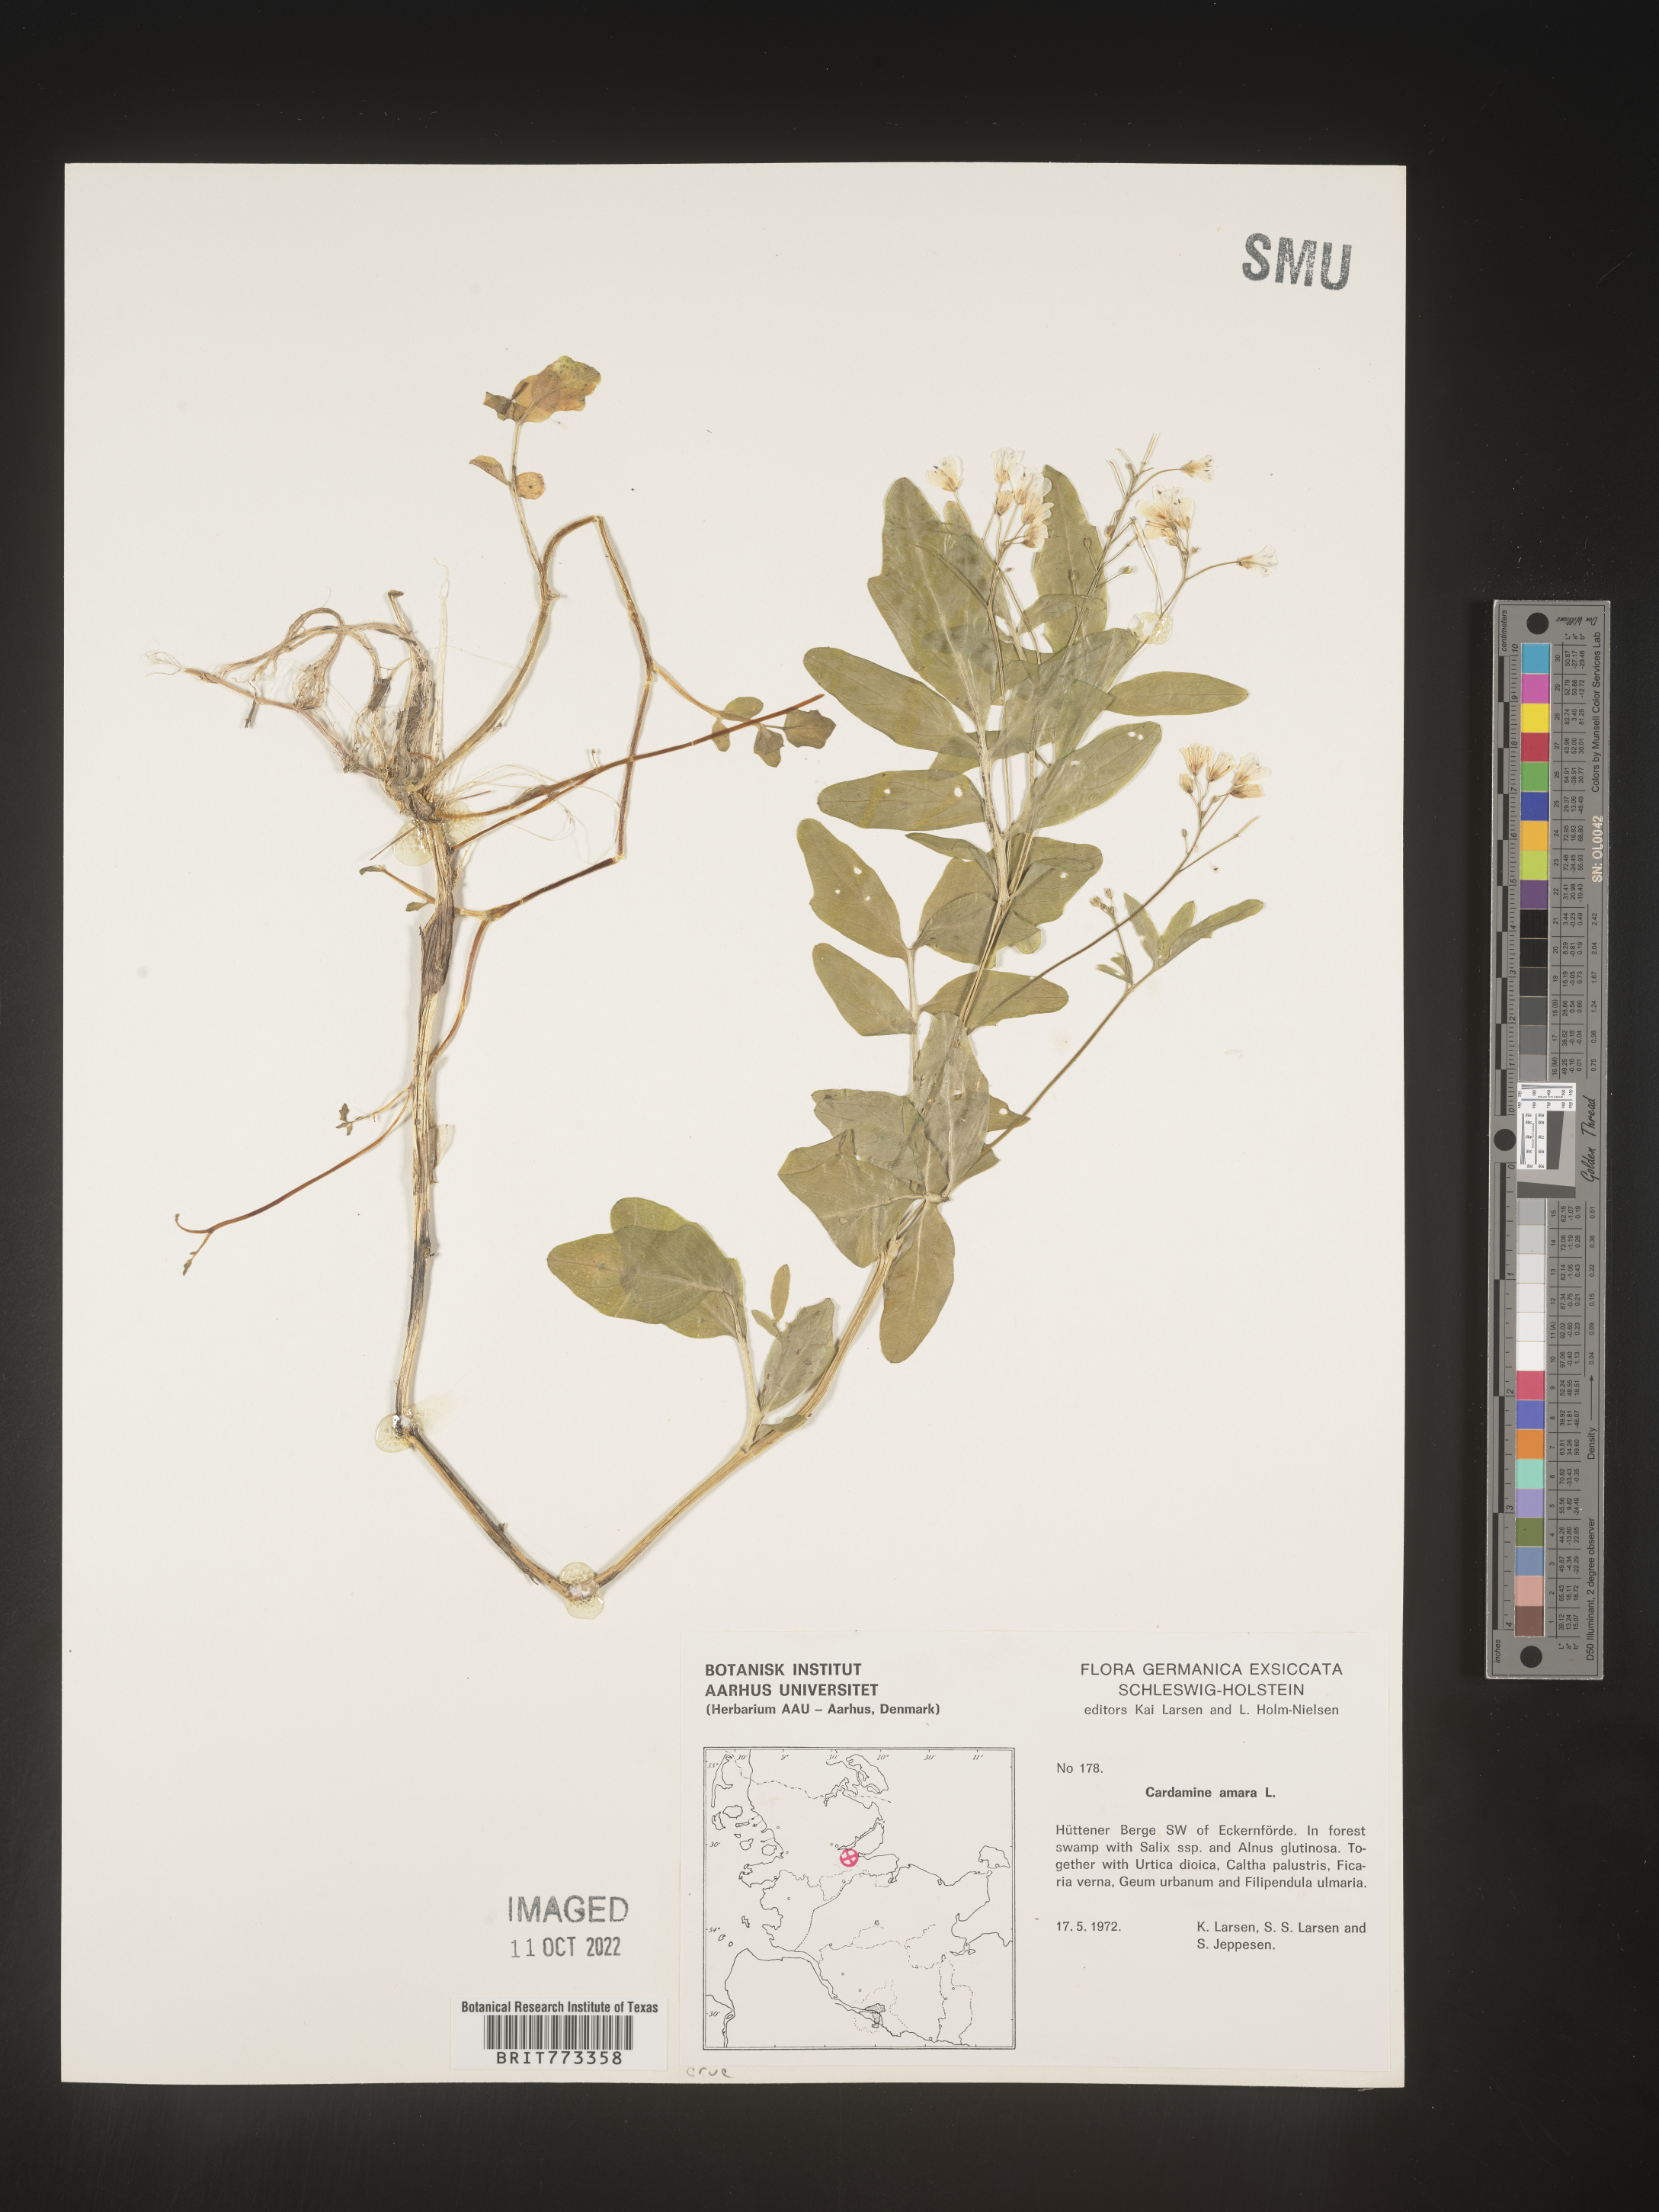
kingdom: Plantae
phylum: Tracheophyta
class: Magnoliopsida
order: Brassicales
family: Brassicaceae
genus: Cardamine
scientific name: Cardamine
